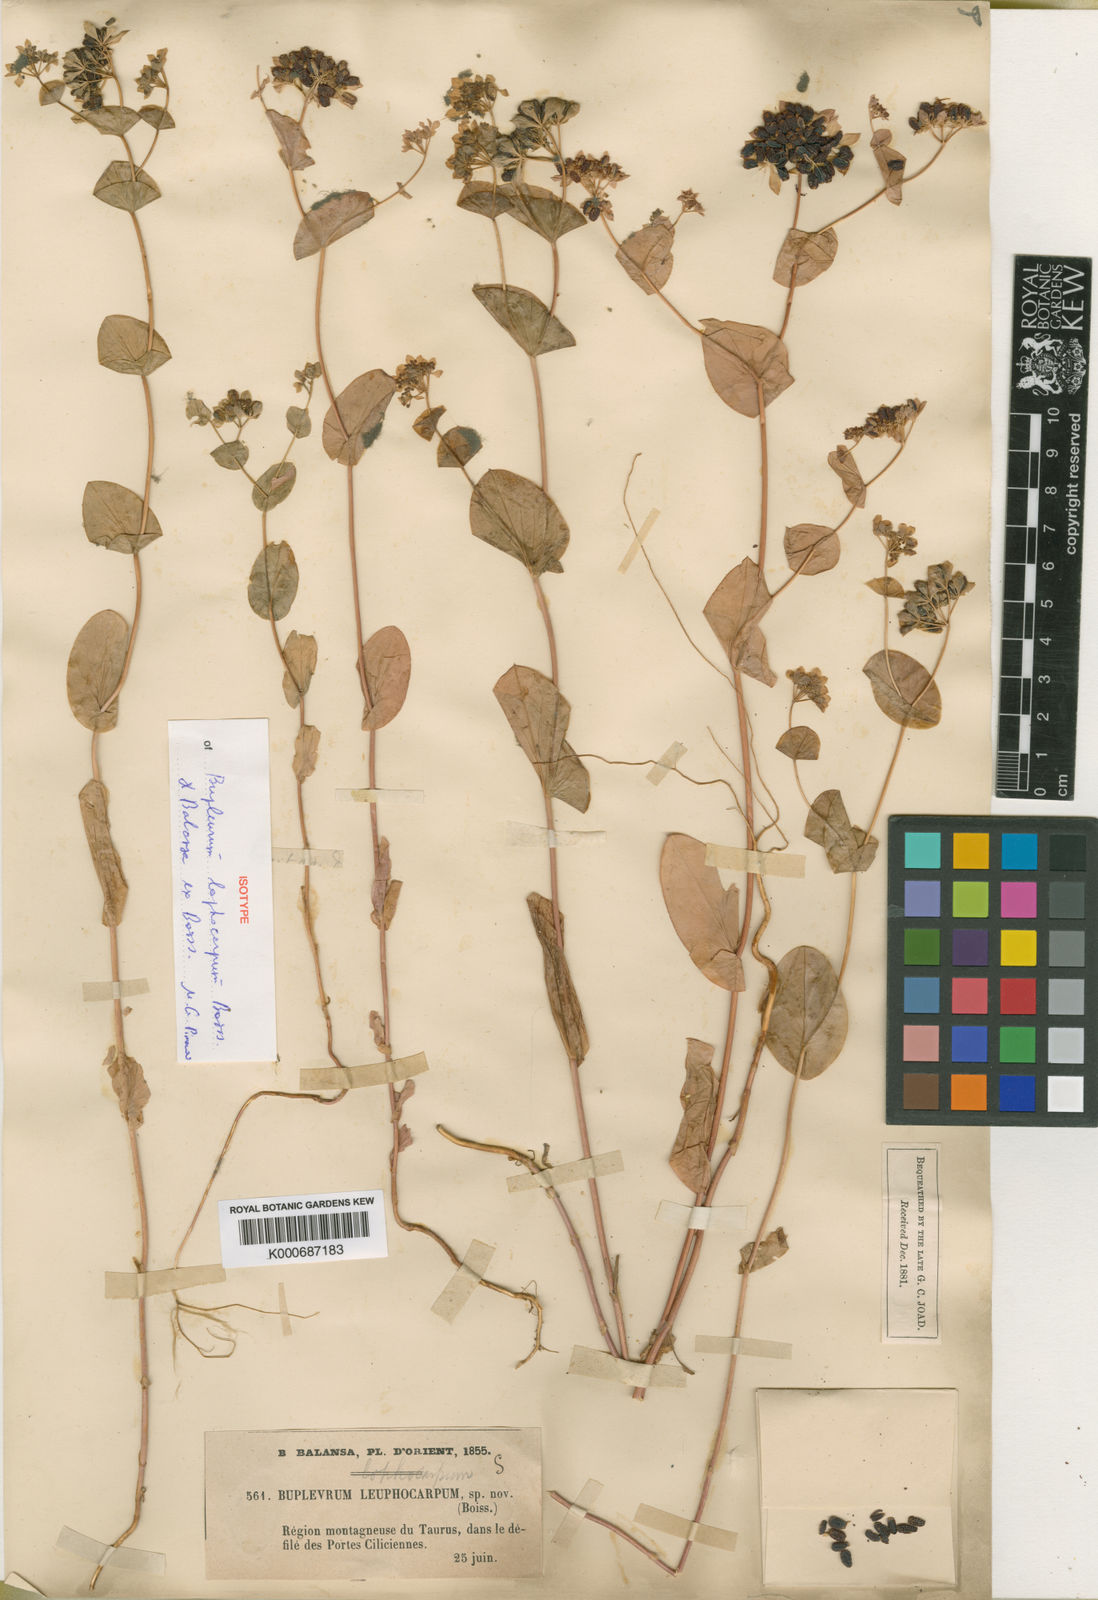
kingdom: Plantae
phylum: Tracheophyta
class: Magnoliopsida
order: Apiales
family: Apiaceae
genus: Bupleurum
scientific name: Bupleurum lophocarpum
